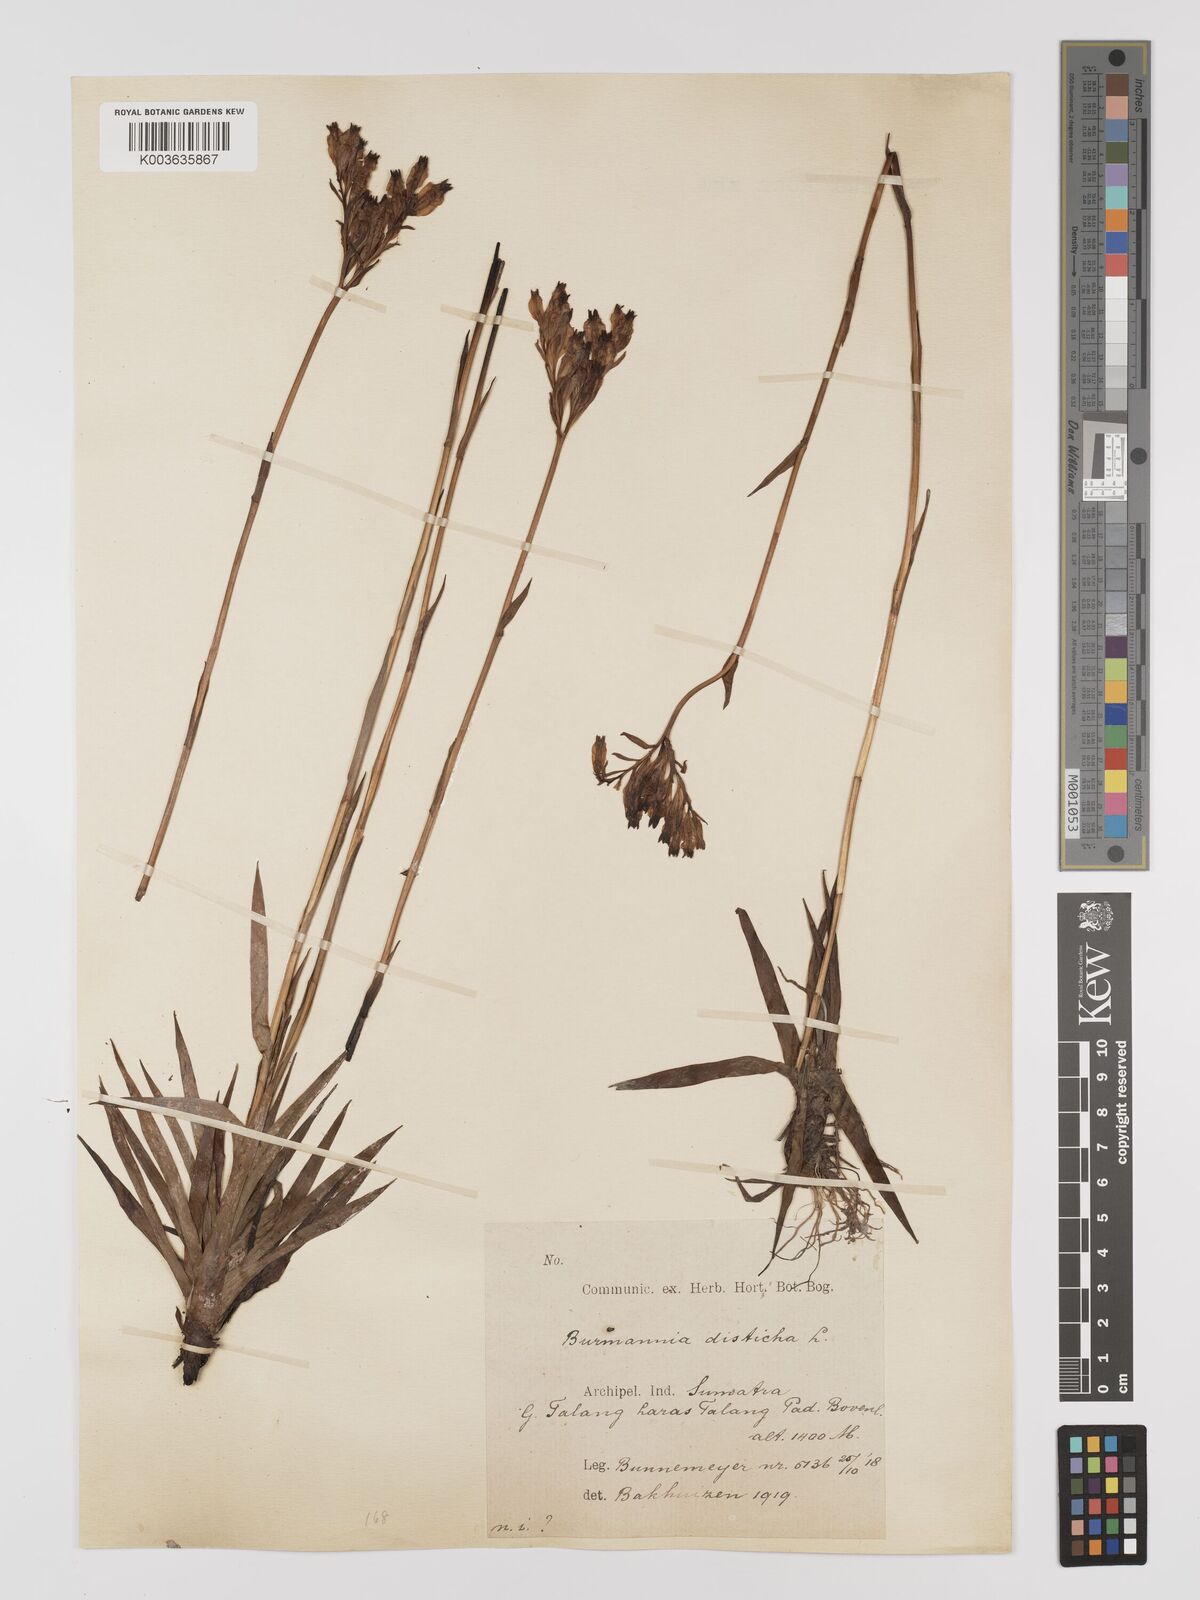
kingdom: Plantae
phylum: Tracheophyta
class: Liliopsida
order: Dioscoreales
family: Burmanniaceae
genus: Burmannia
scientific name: Burmannia disticha
